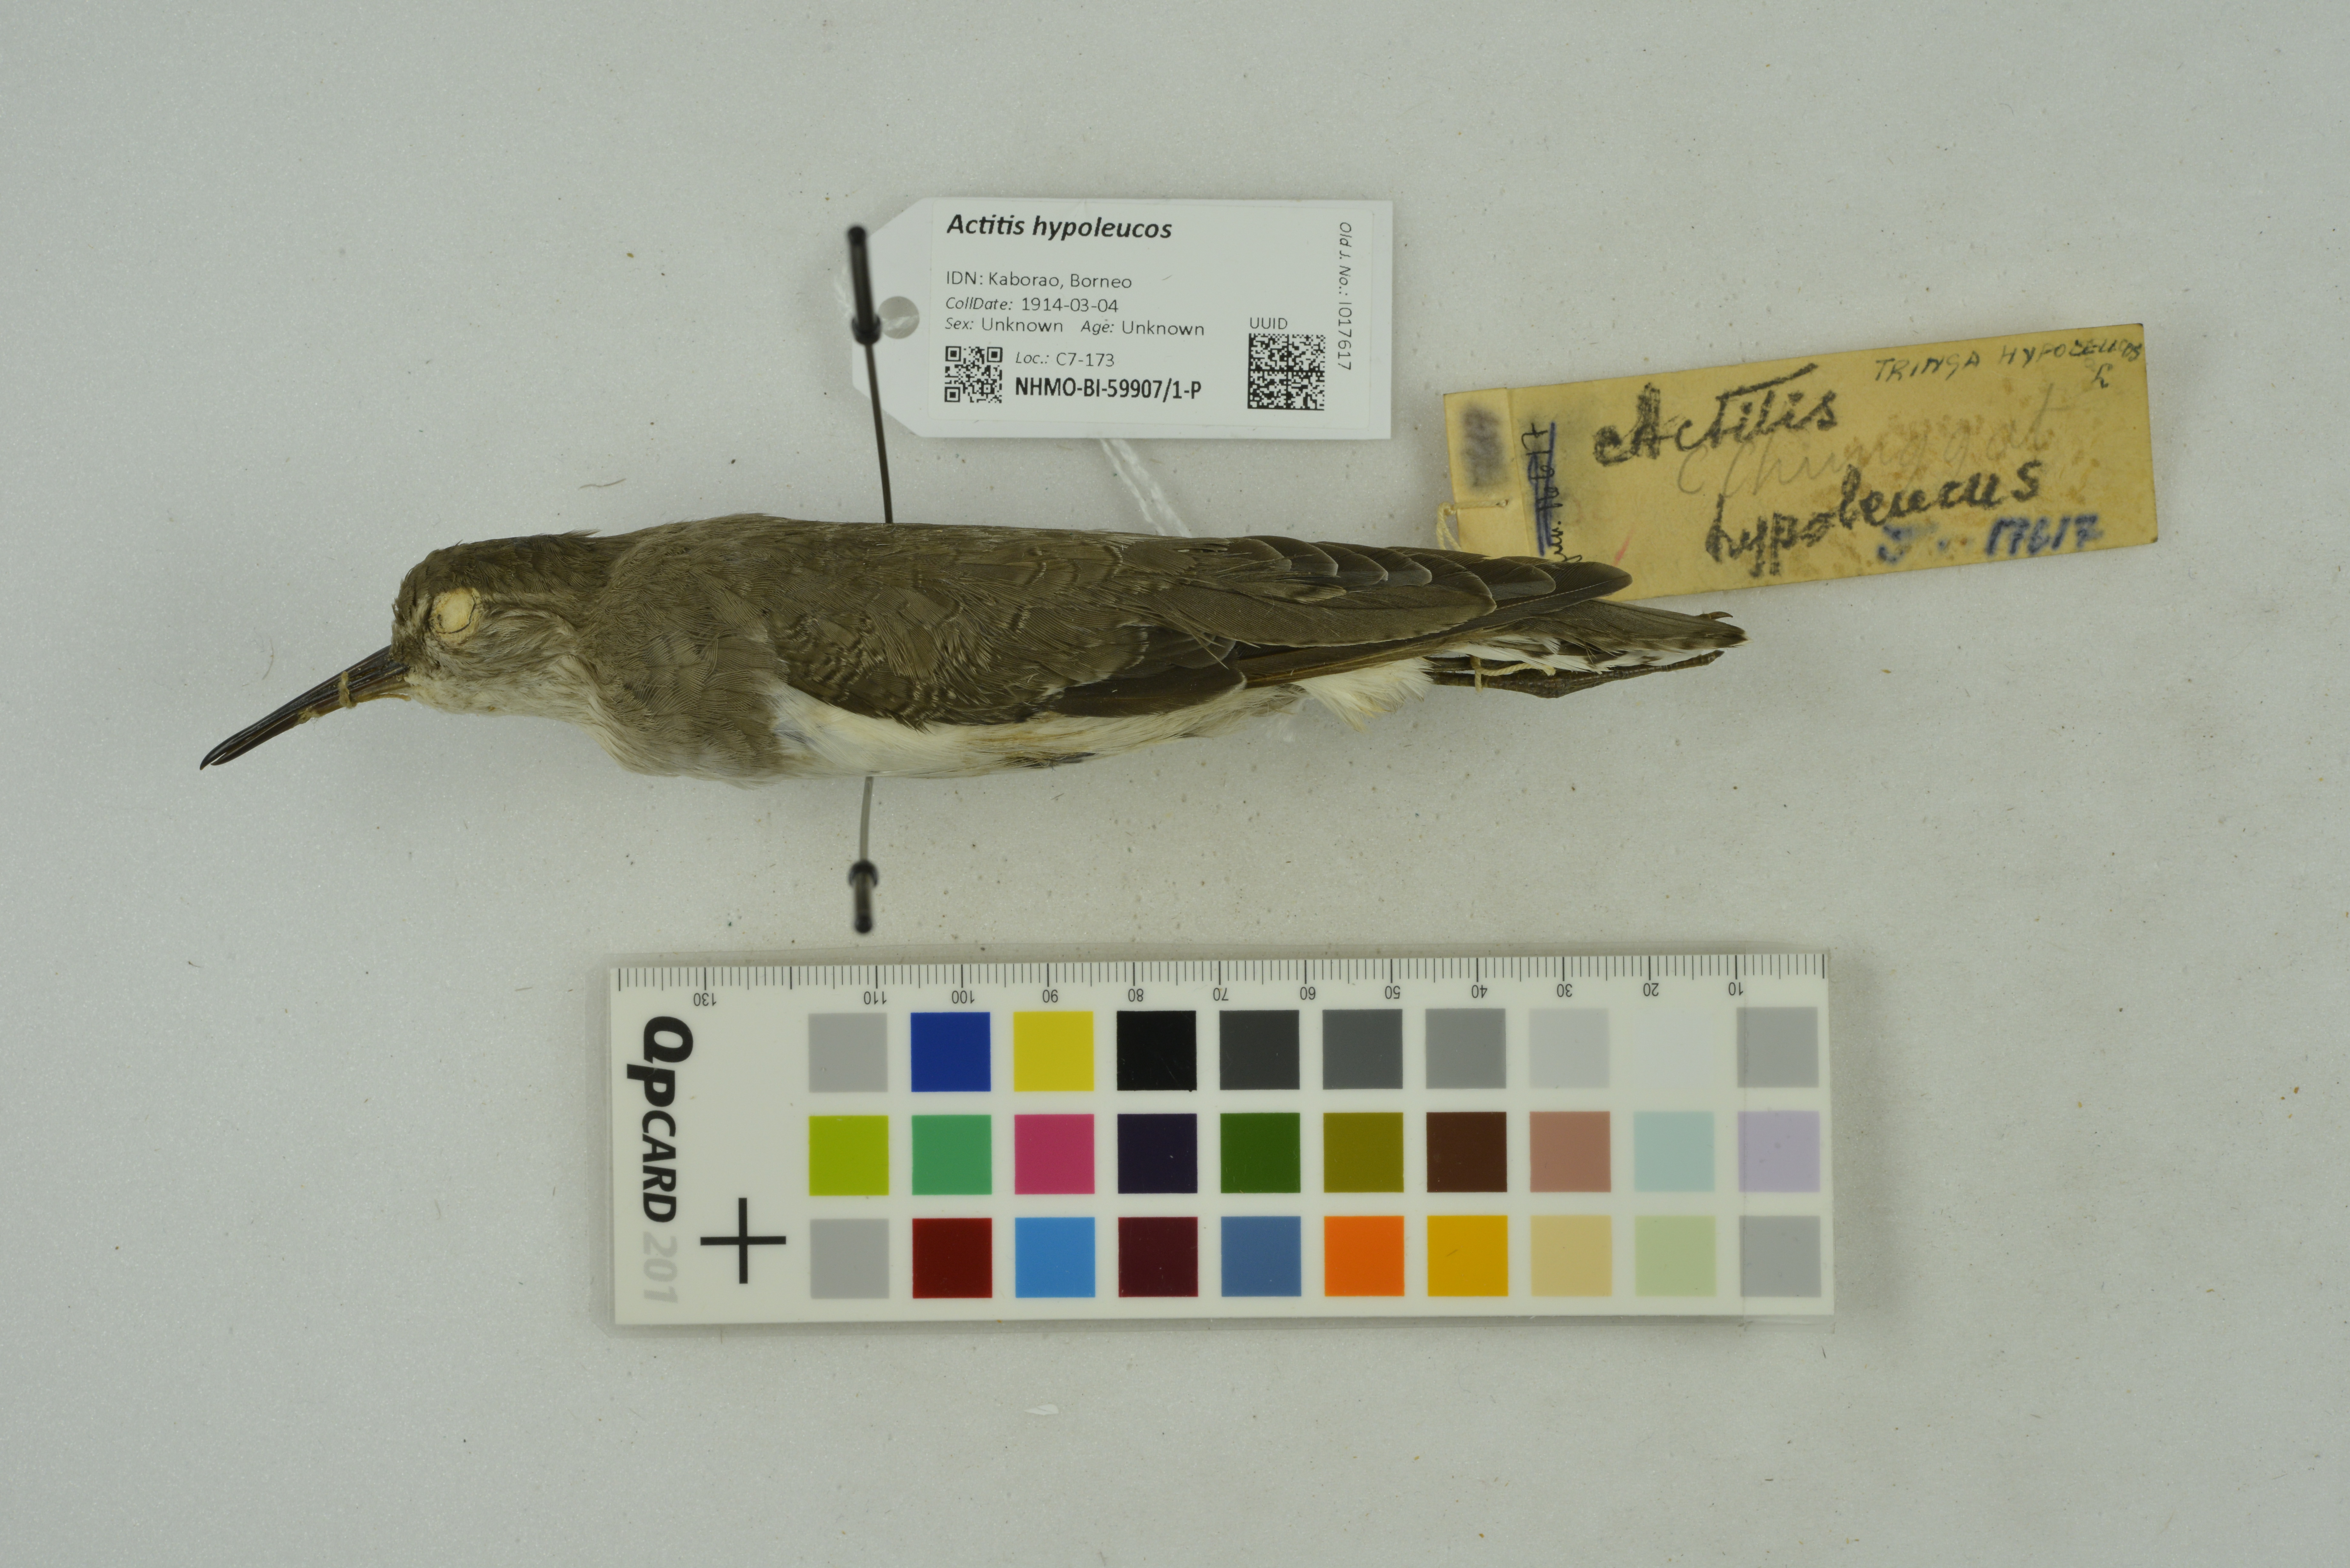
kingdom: Animalia
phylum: Chordata
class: Aves
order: Charadriiformes
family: Scolopacidae
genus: Actitis
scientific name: Actitis hypoleucos
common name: Common sandpiper
